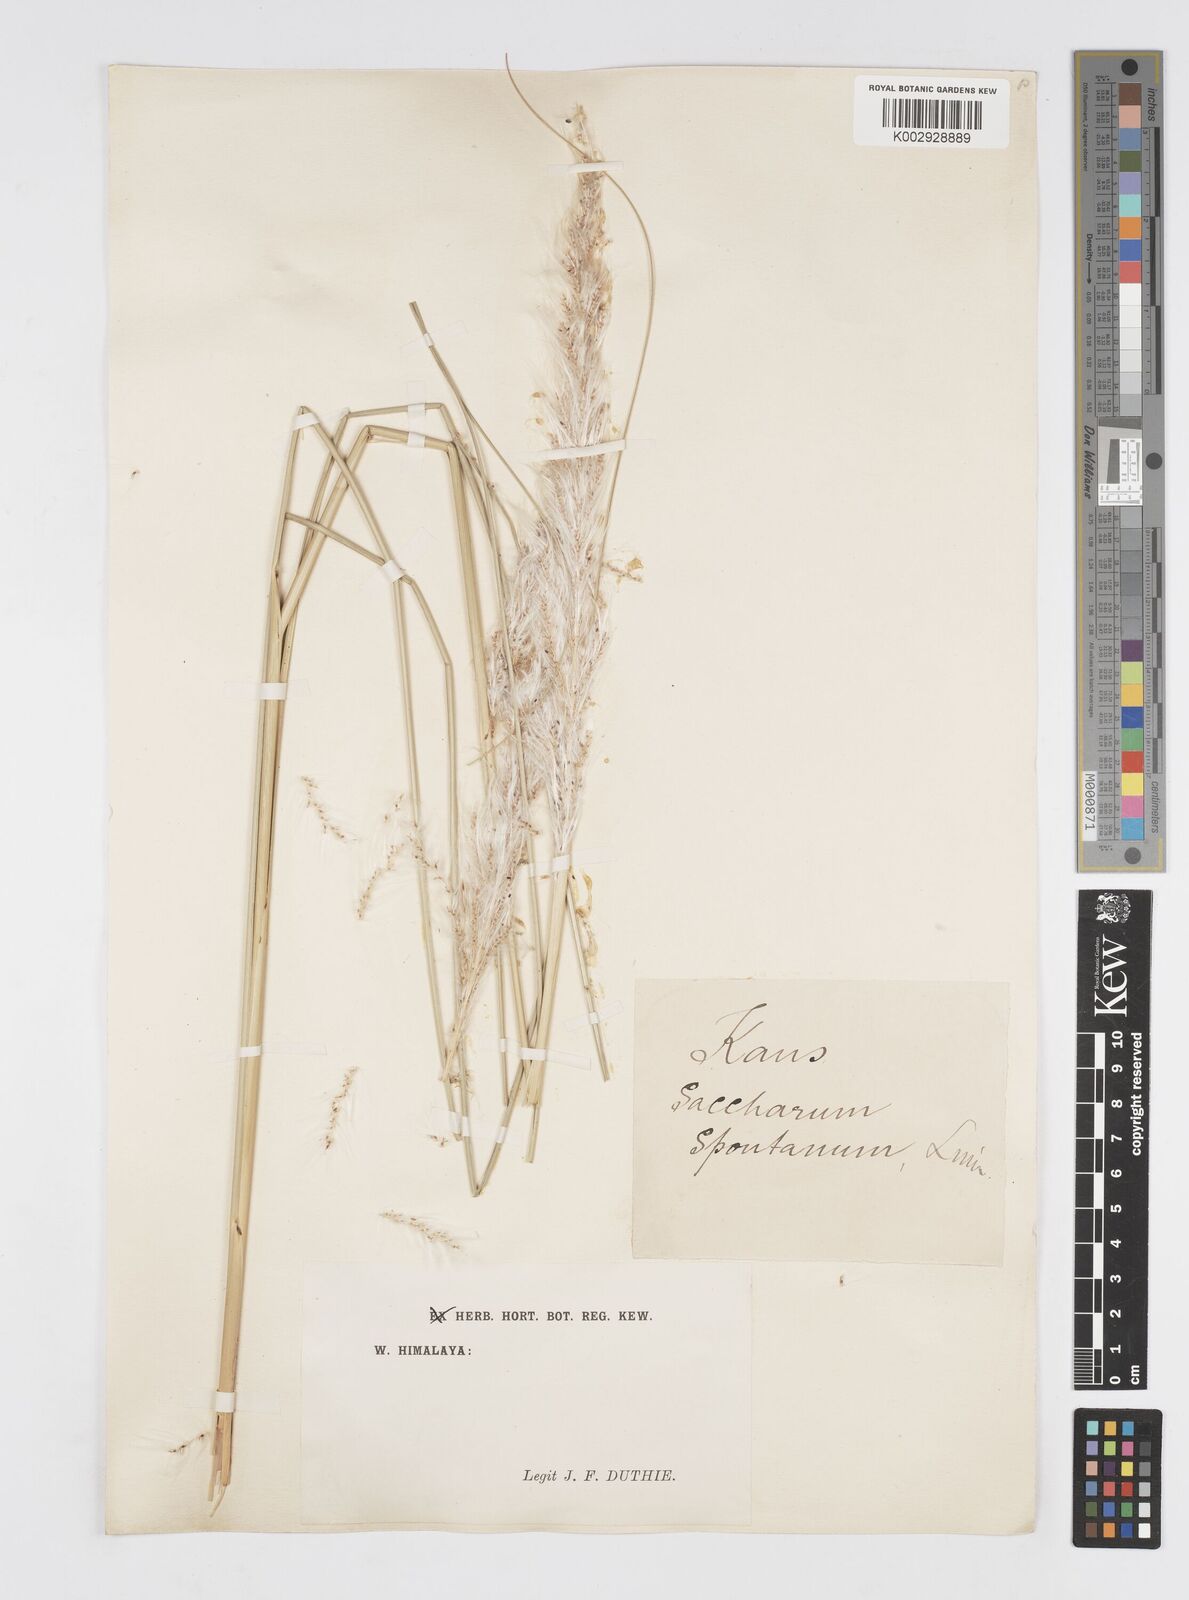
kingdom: Plantae
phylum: Tracheophyta
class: Liliopsida
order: Poales
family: Poaceae
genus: Saccharum
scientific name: Saccharum spontaneum
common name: Wild sugarcane
